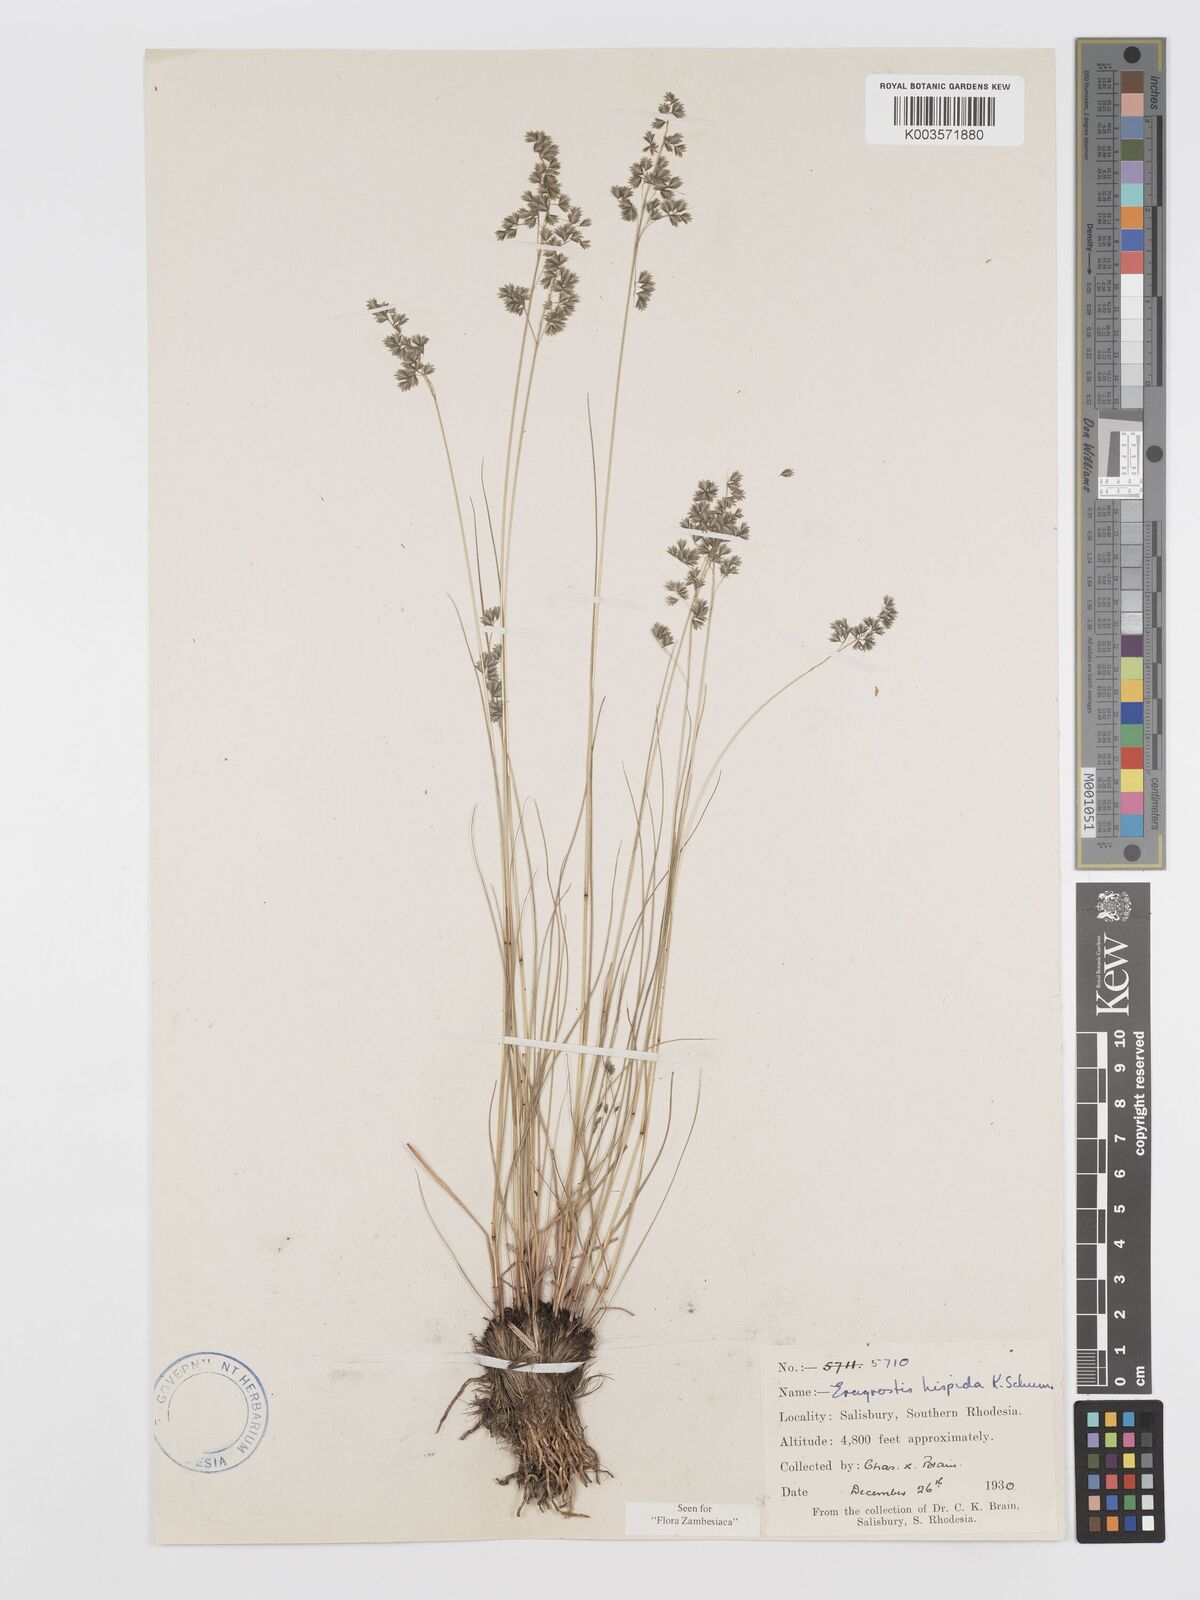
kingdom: Plantae
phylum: Tracheophyta
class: Liliopsida
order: Poales
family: Poaceae
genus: Eragrostis
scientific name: Eragrostis hispida
